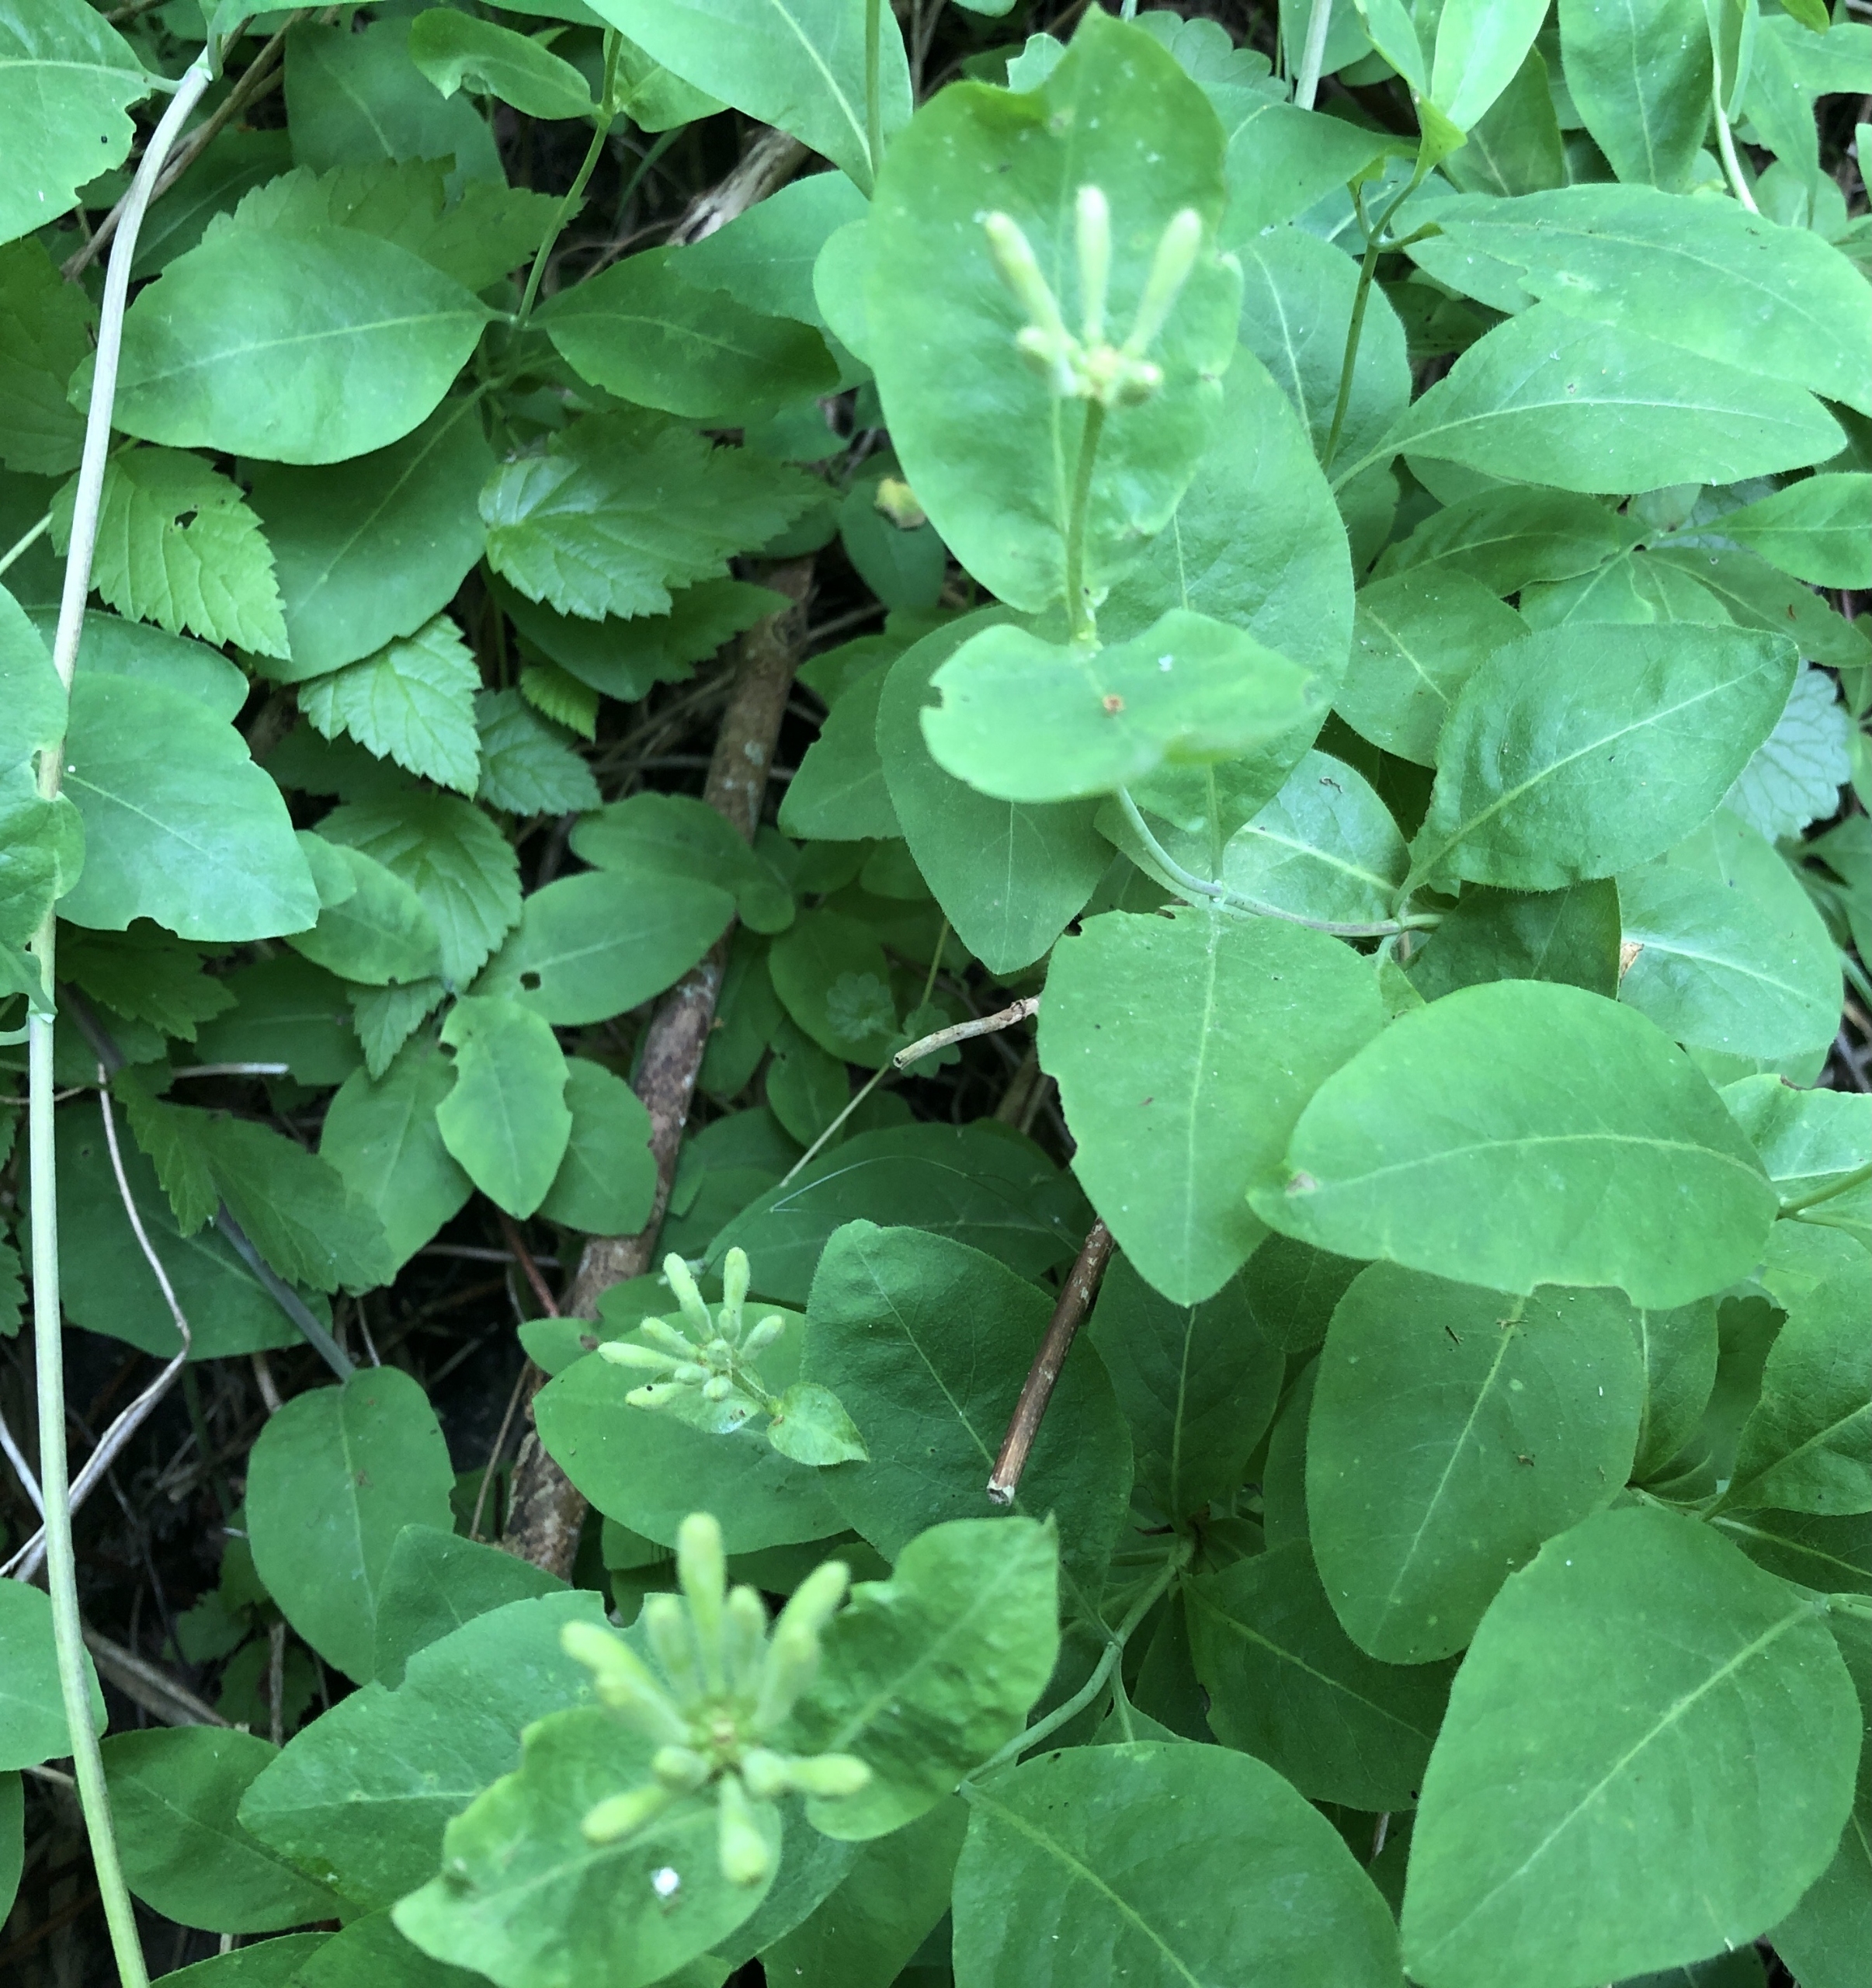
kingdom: Plantae
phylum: Tracheophyta
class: Magnoliopsida
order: Dipsacales
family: Caprifoliaceae
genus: Lonicera
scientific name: Lonicera periclymenum
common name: Almindelig gedeblad
